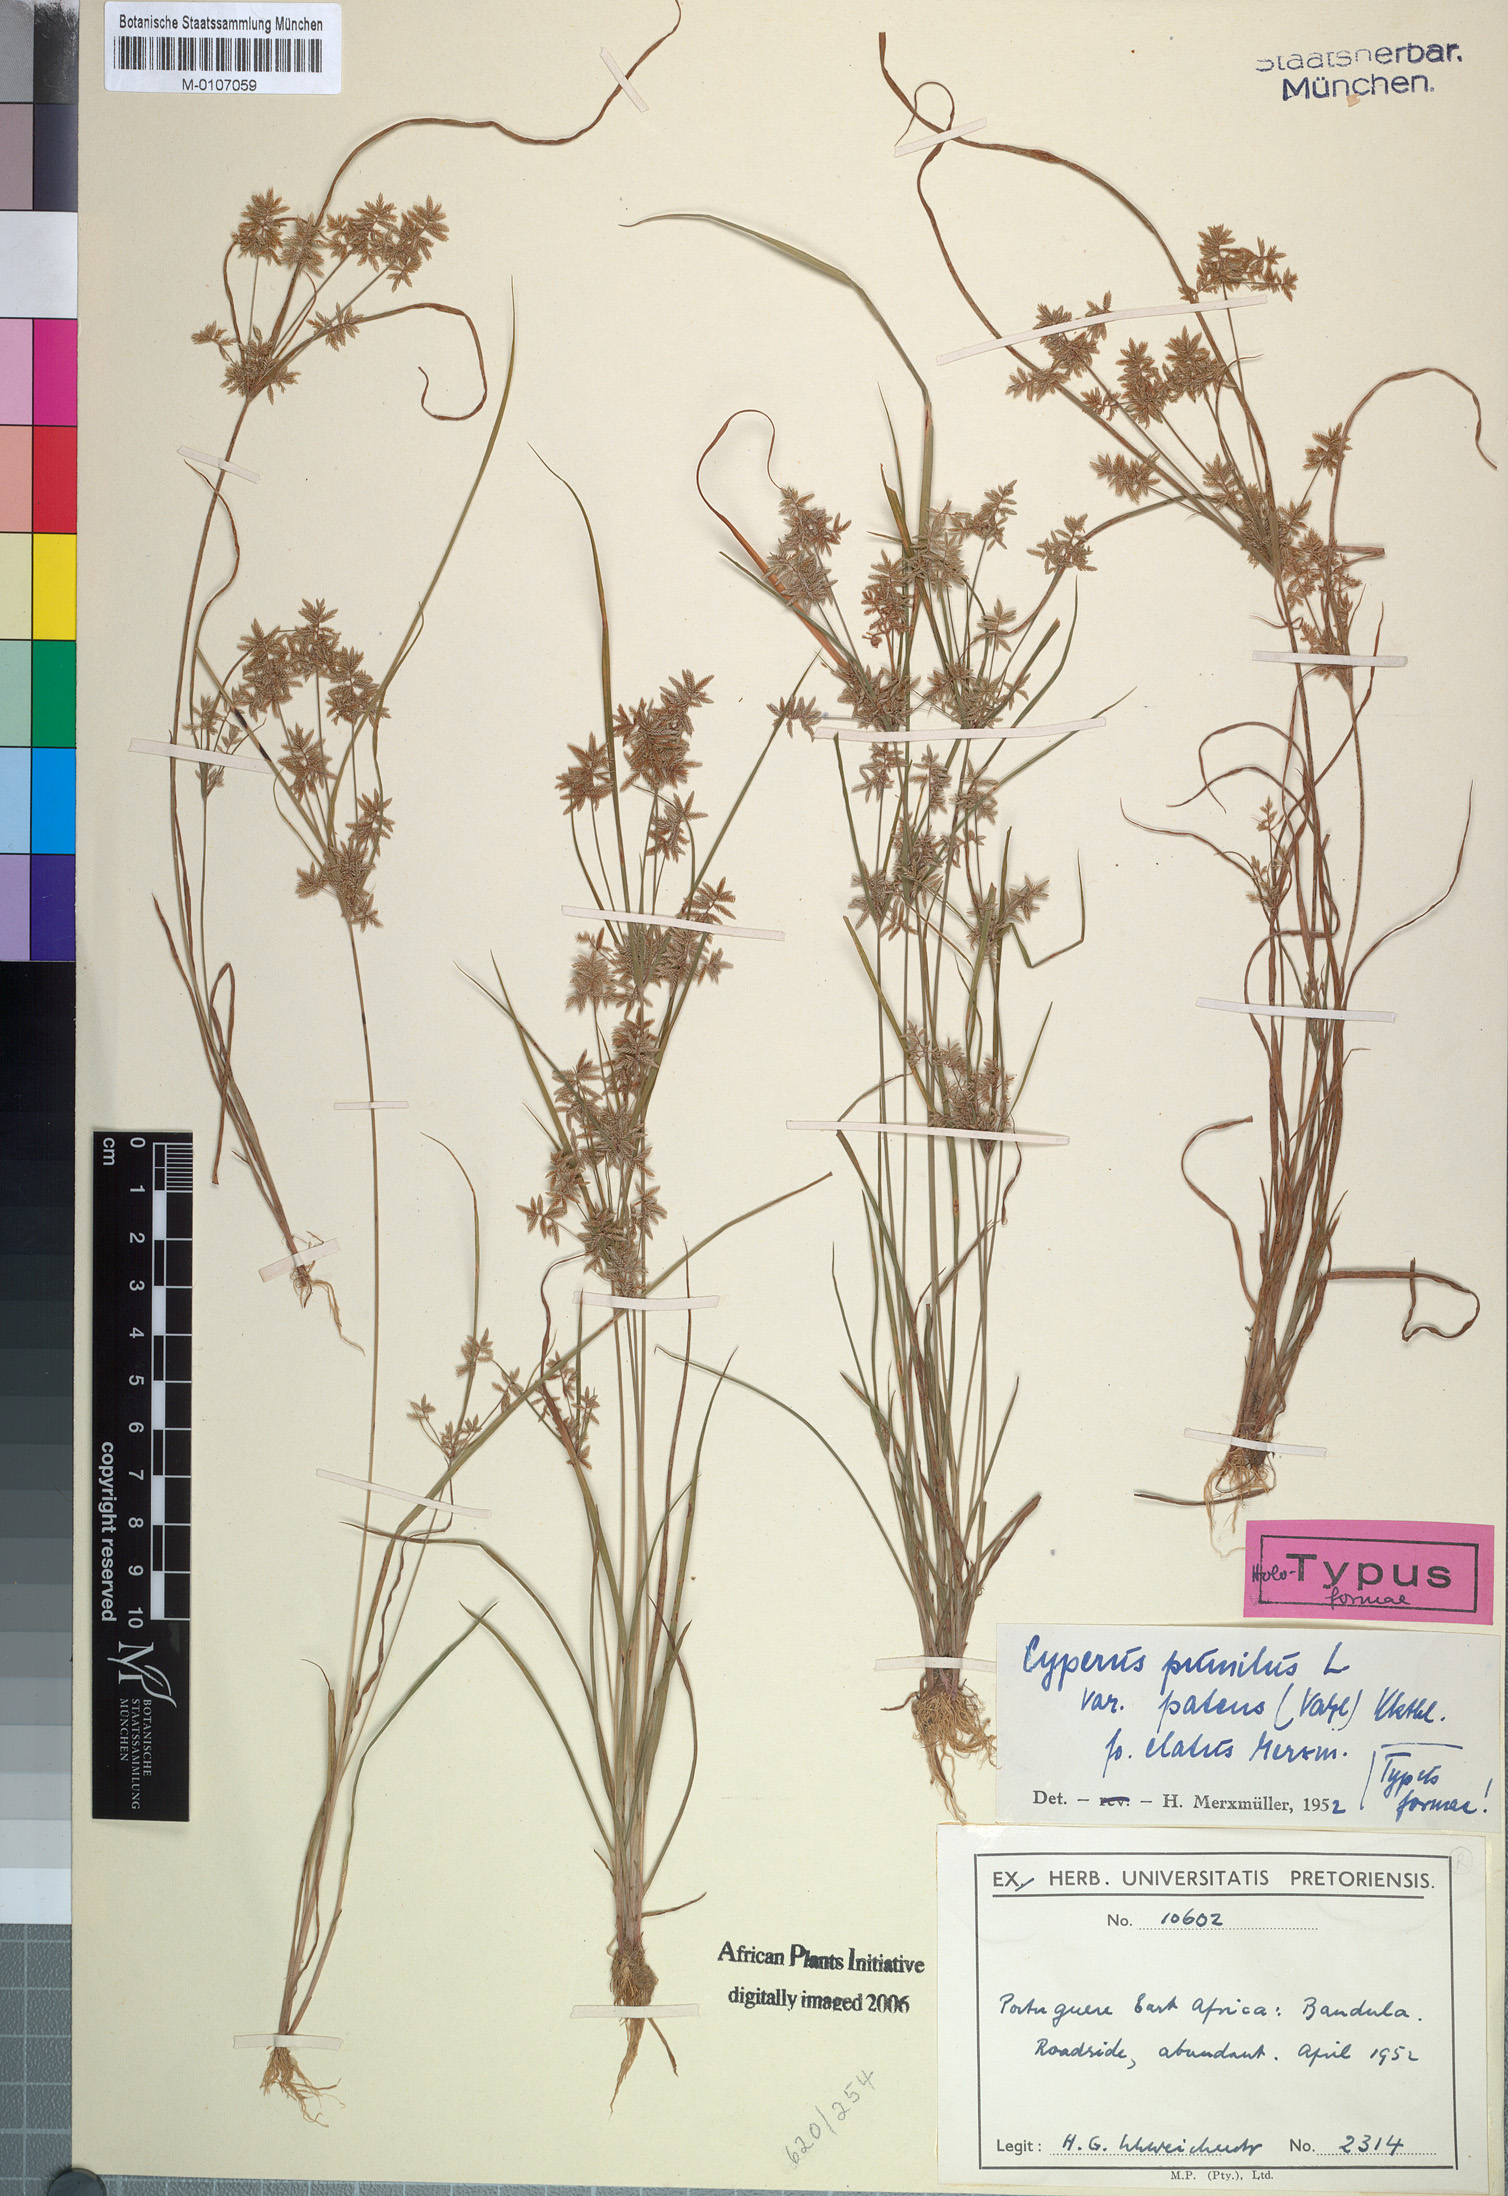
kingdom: Plantae
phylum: Tracheophyta
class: Liliopsida
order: Poales
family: Cyperaceae
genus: Cyperus
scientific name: Cyperus pumilus
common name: Low flatsedge
